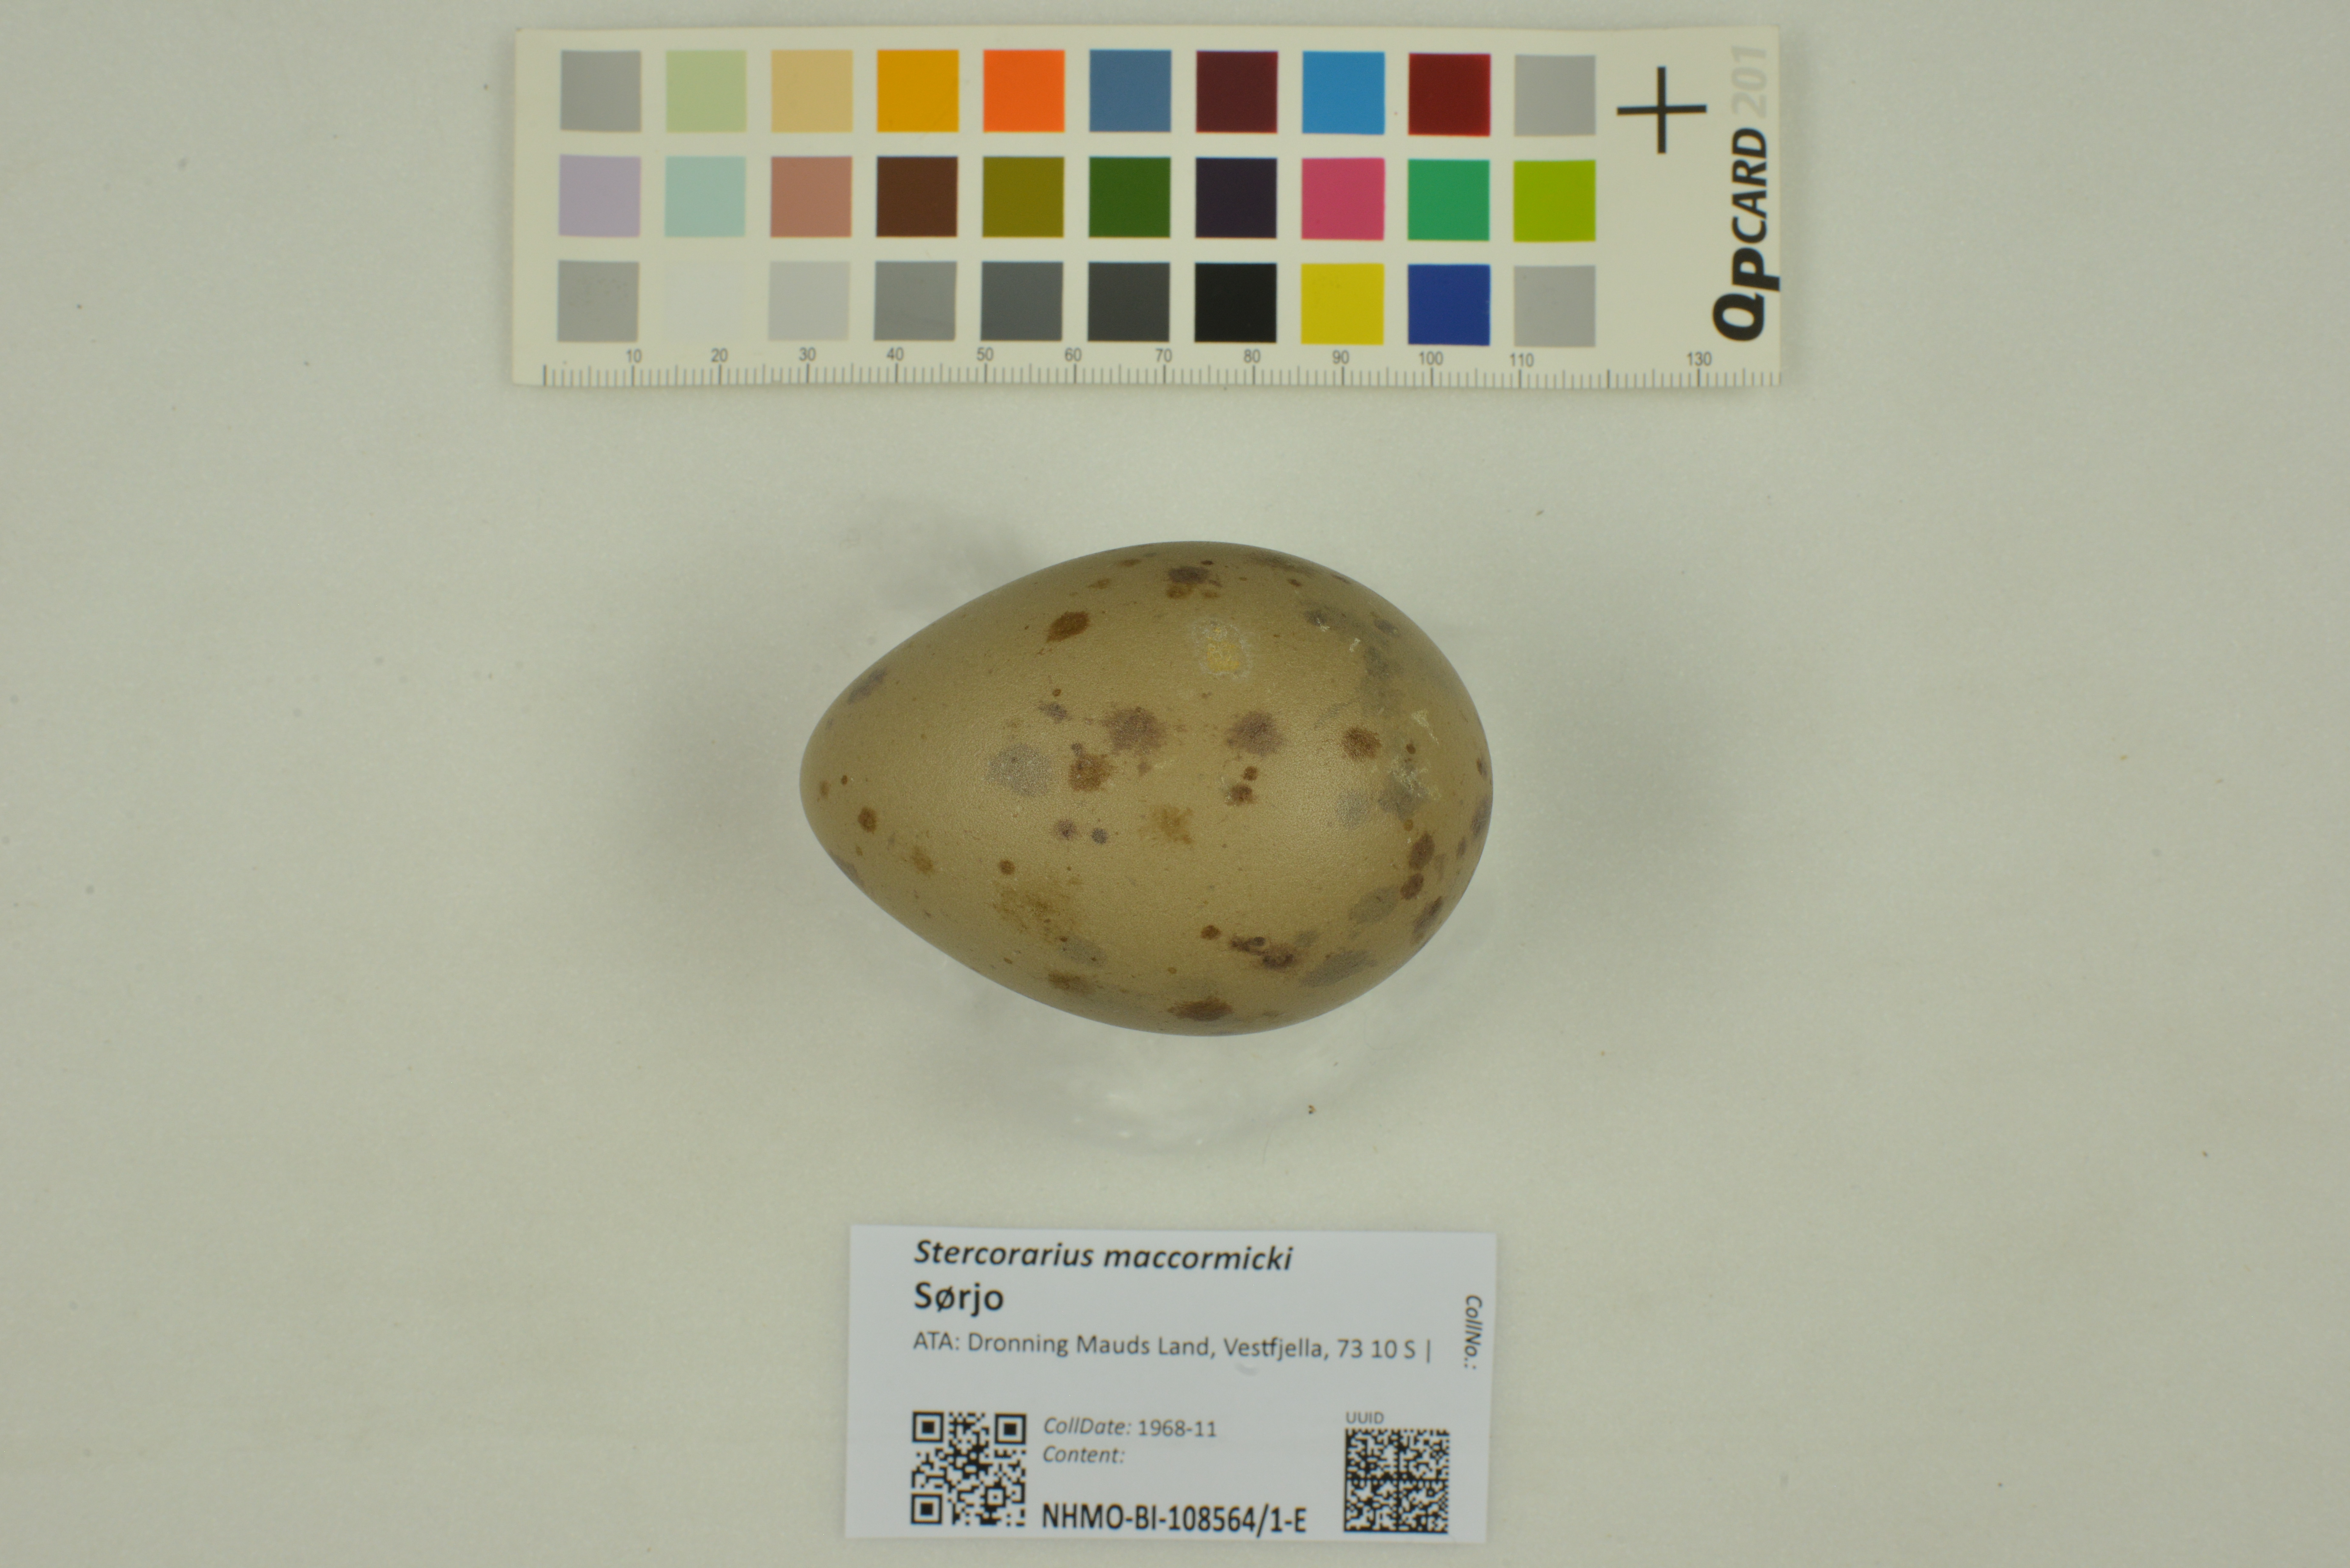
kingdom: Animalia
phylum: Chordata
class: Aves
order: Charadriiformes
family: Stercorariidae
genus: Stercorarius
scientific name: Stercorarius maccormicki
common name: South polar skua
